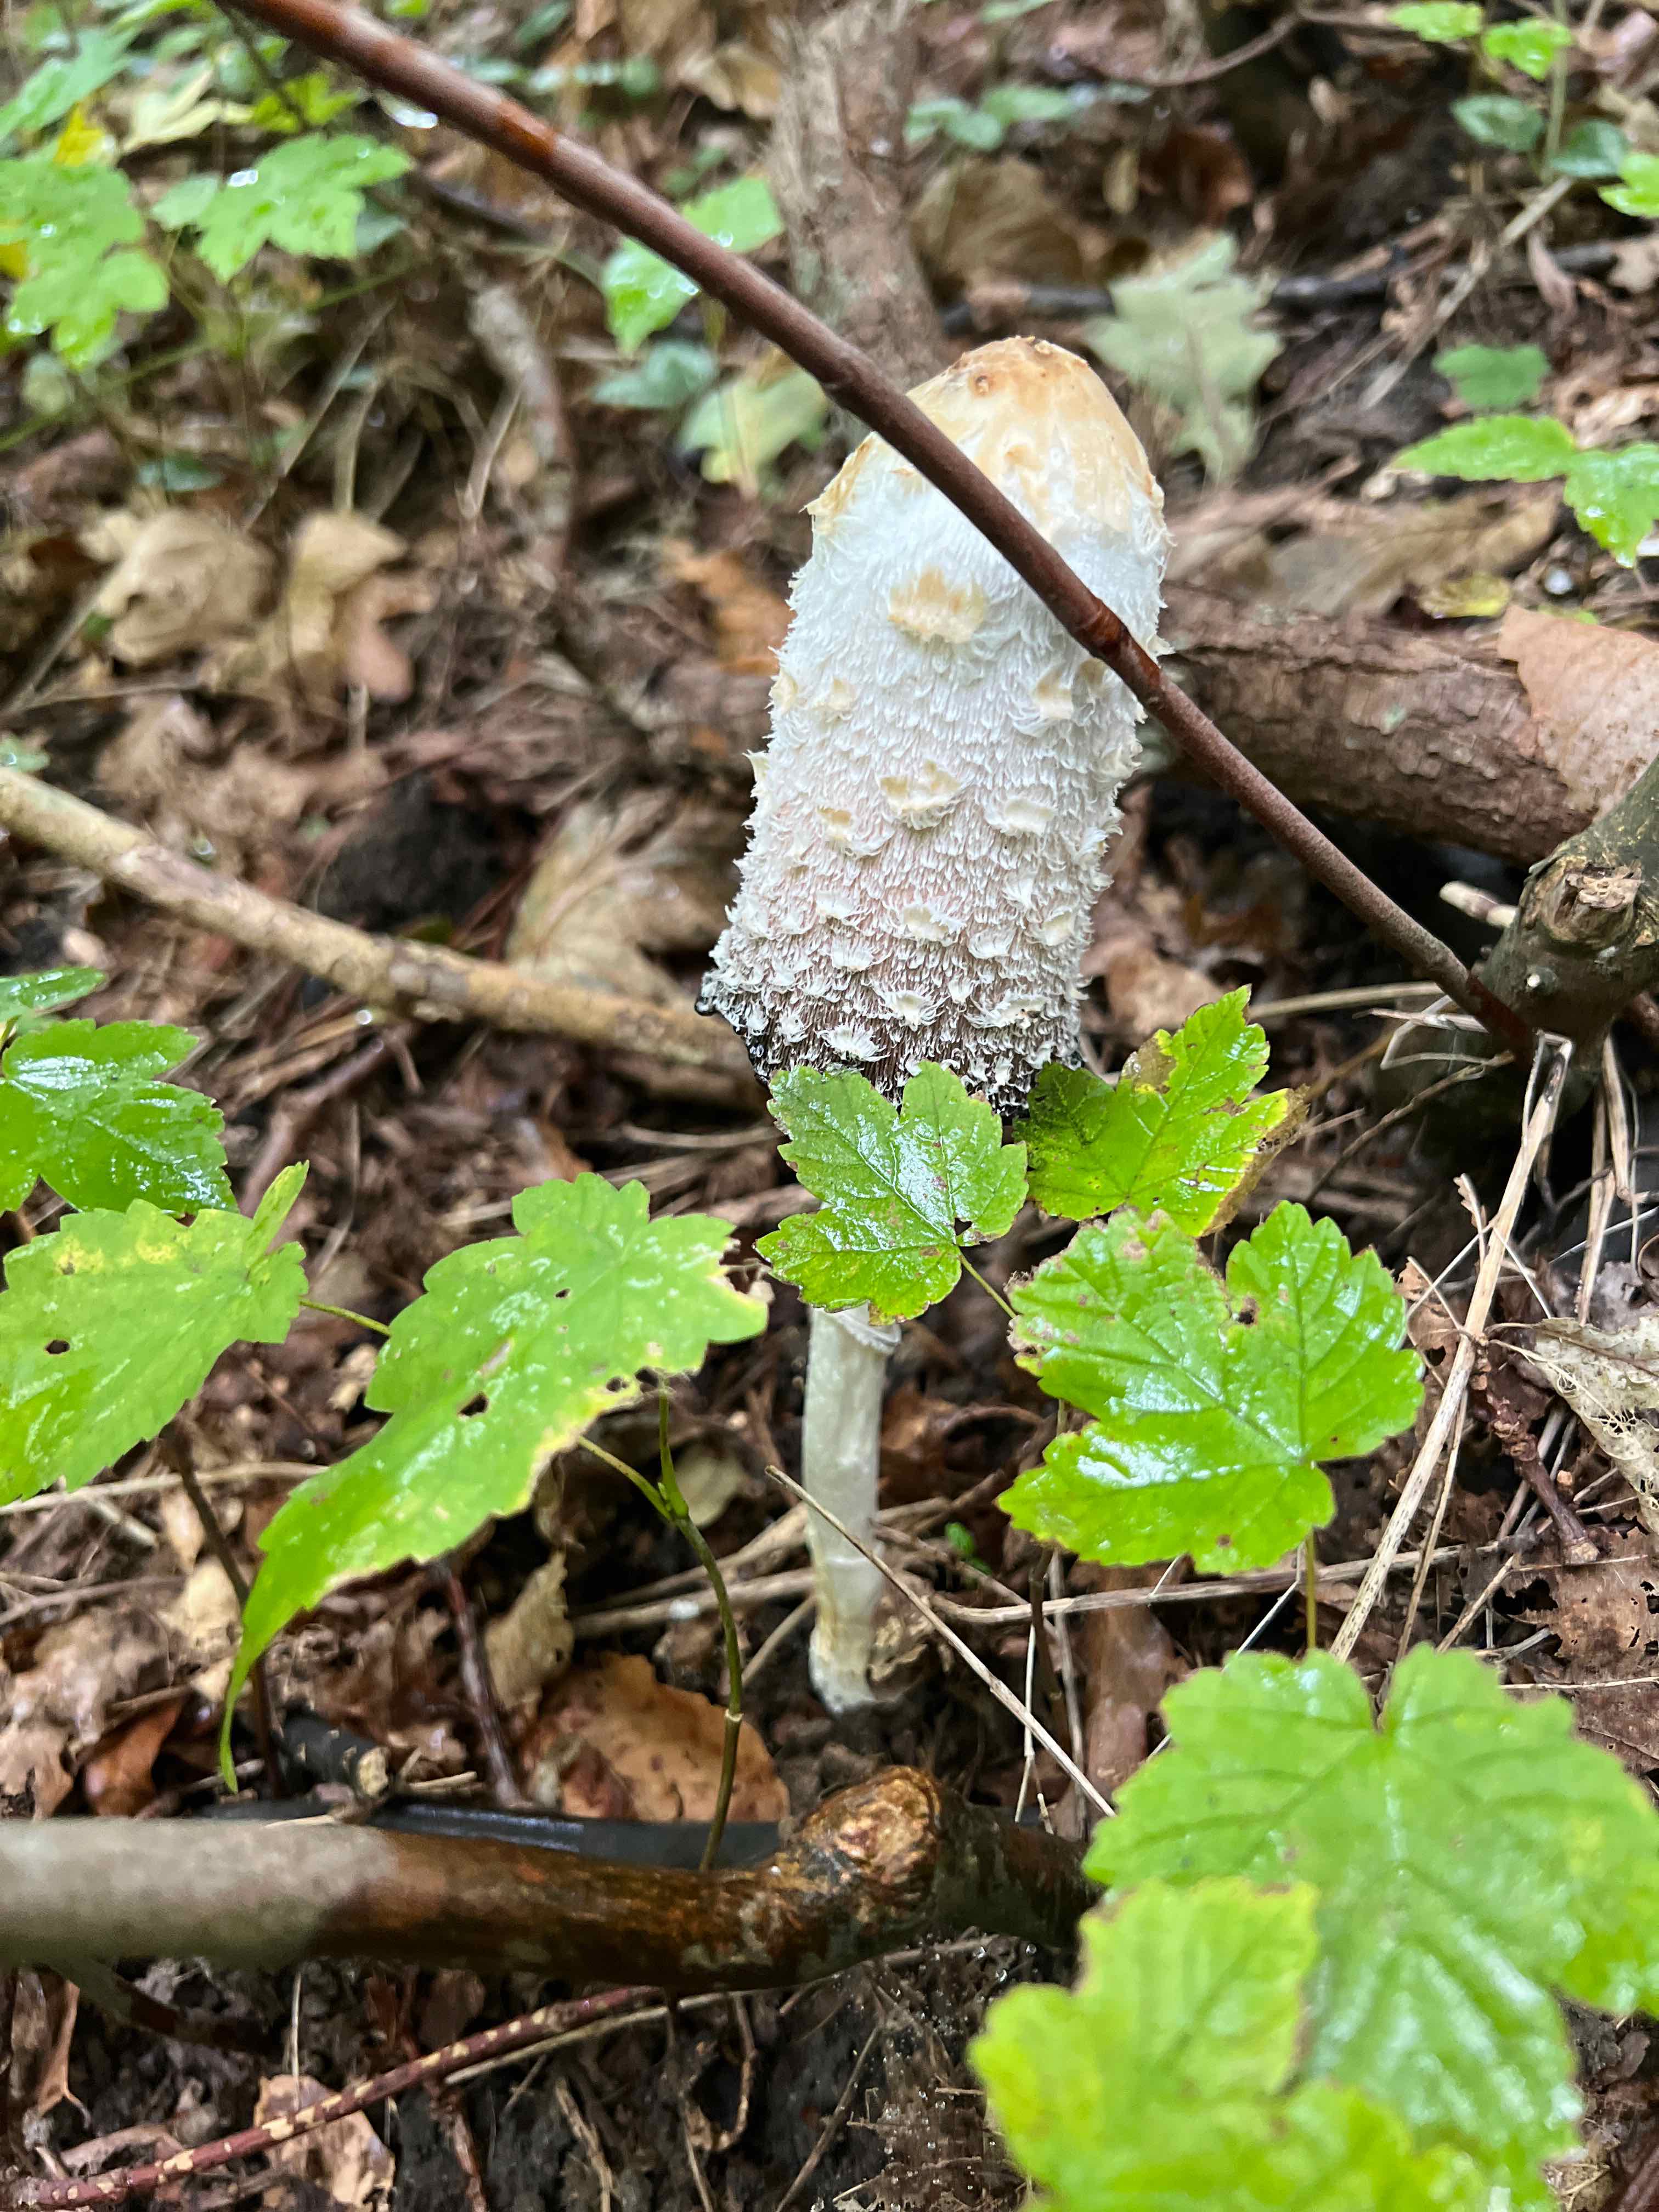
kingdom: Fungi
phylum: Basidiomycota
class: Agaricomycetes
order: Agaricales
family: Agaricaceae
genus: Coprinus
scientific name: Coprinus comatus
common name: stor parykhat
